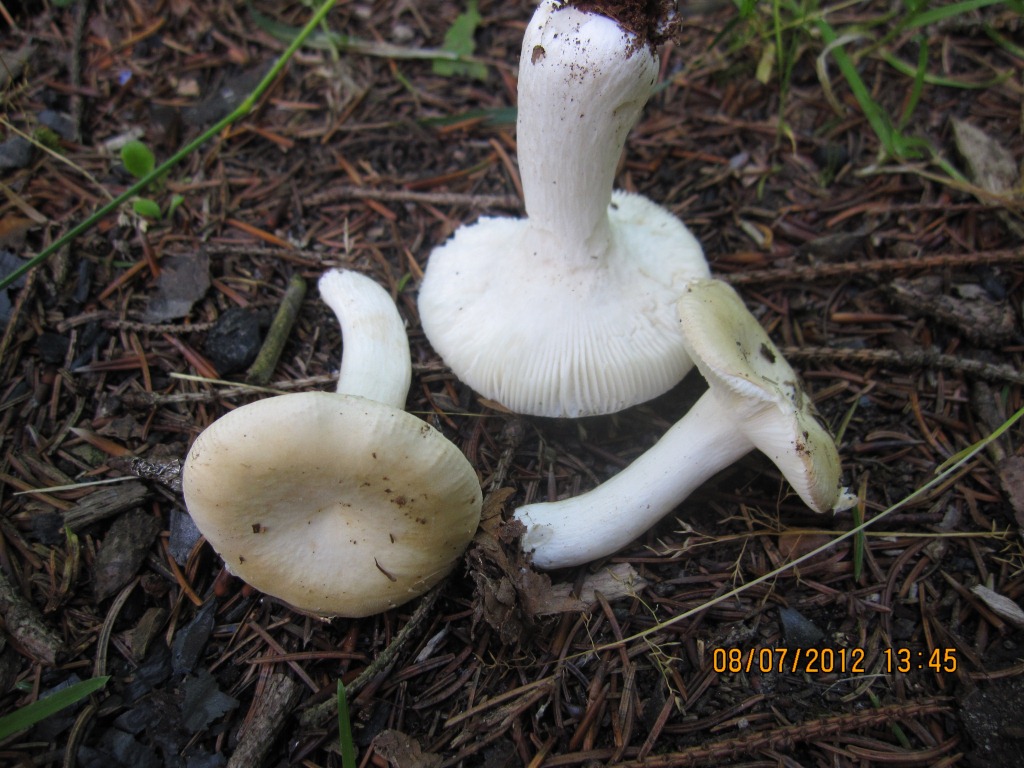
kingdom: Fungi
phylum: Basidiomycota
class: Agaricomycetes
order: Russulales
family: Russulaceae
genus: Russula
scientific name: Russula roseoaurantia
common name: kornet skørhat
